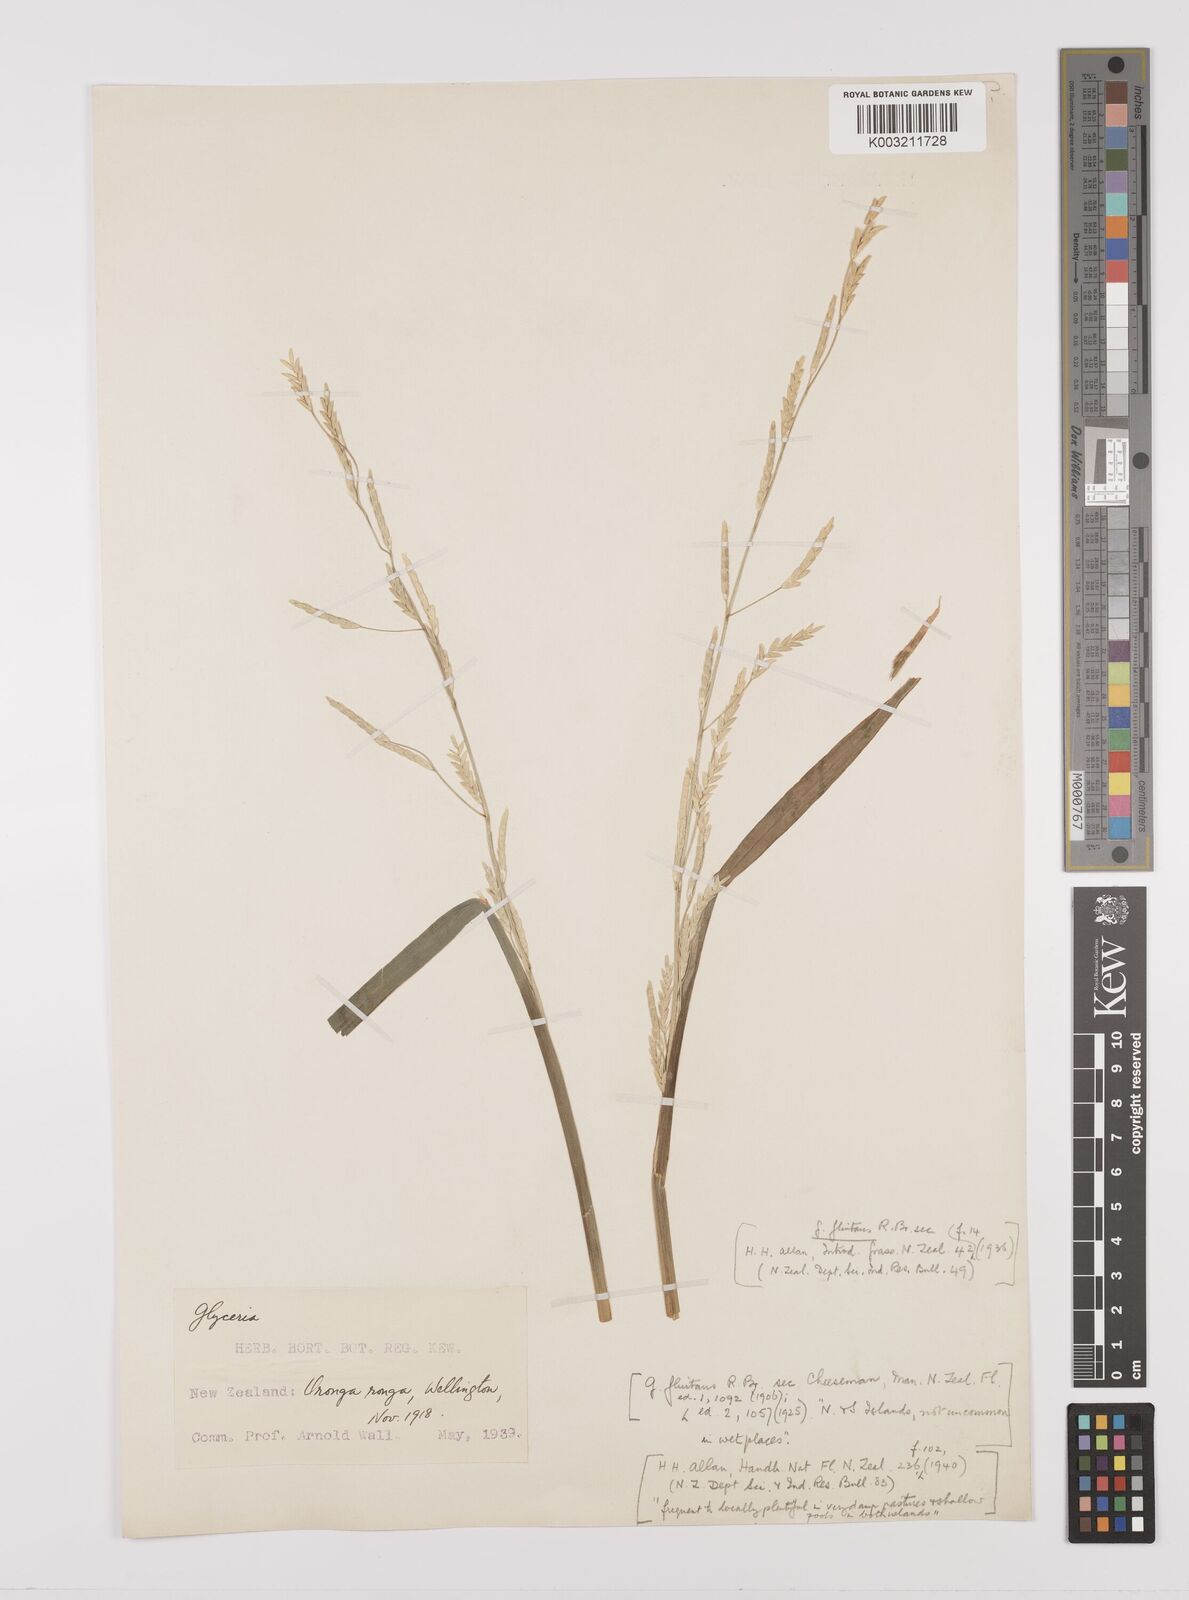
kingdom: Plantae
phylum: Tracheophyta
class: Liliopsida
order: Poales
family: Poaceae
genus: Glyceria
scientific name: Glyceria
